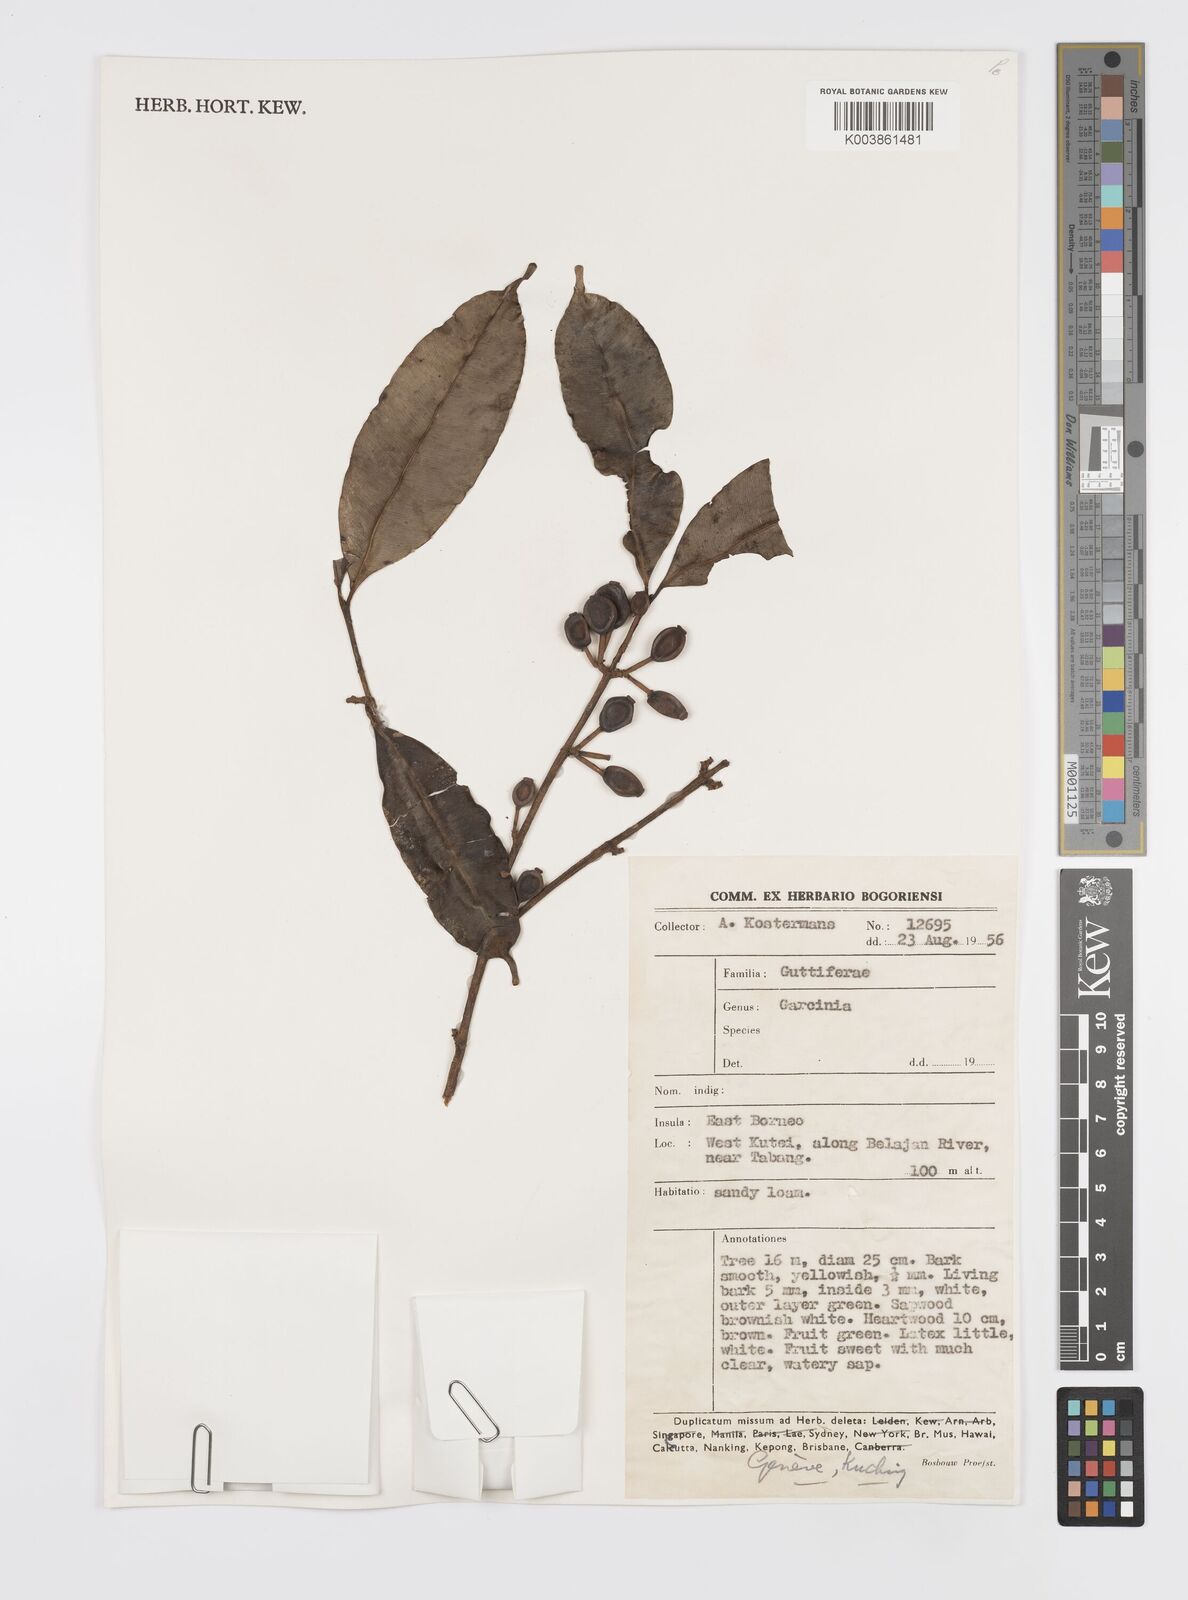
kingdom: Plantae
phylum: Tracheophyta
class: Magnoliopsida
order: Malpighiales
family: Clusiaceae
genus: Garcinia
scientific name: Garcinia
